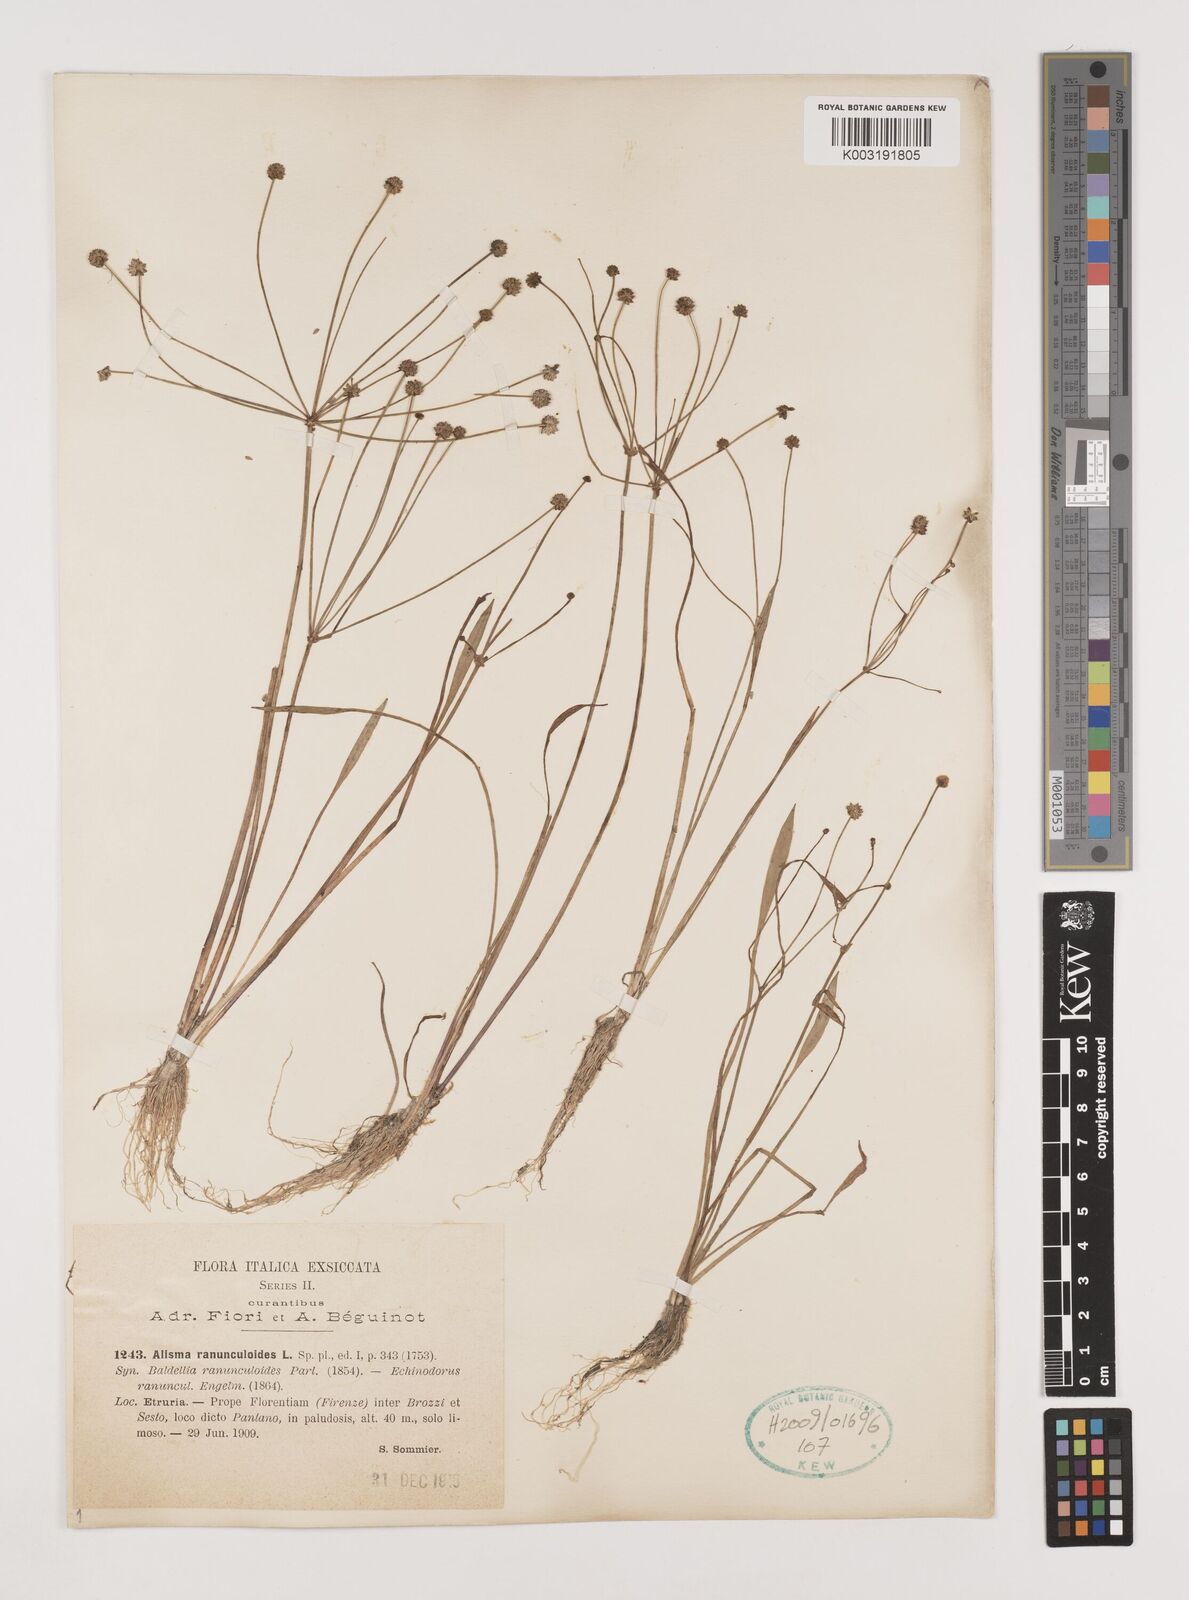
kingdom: Plantae
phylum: Tracheophyta
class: Liliopsida
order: Alismatales
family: Alismataceae
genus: Baldellia
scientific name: Baldellia ranunculoides
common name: Lesser water-plantain
